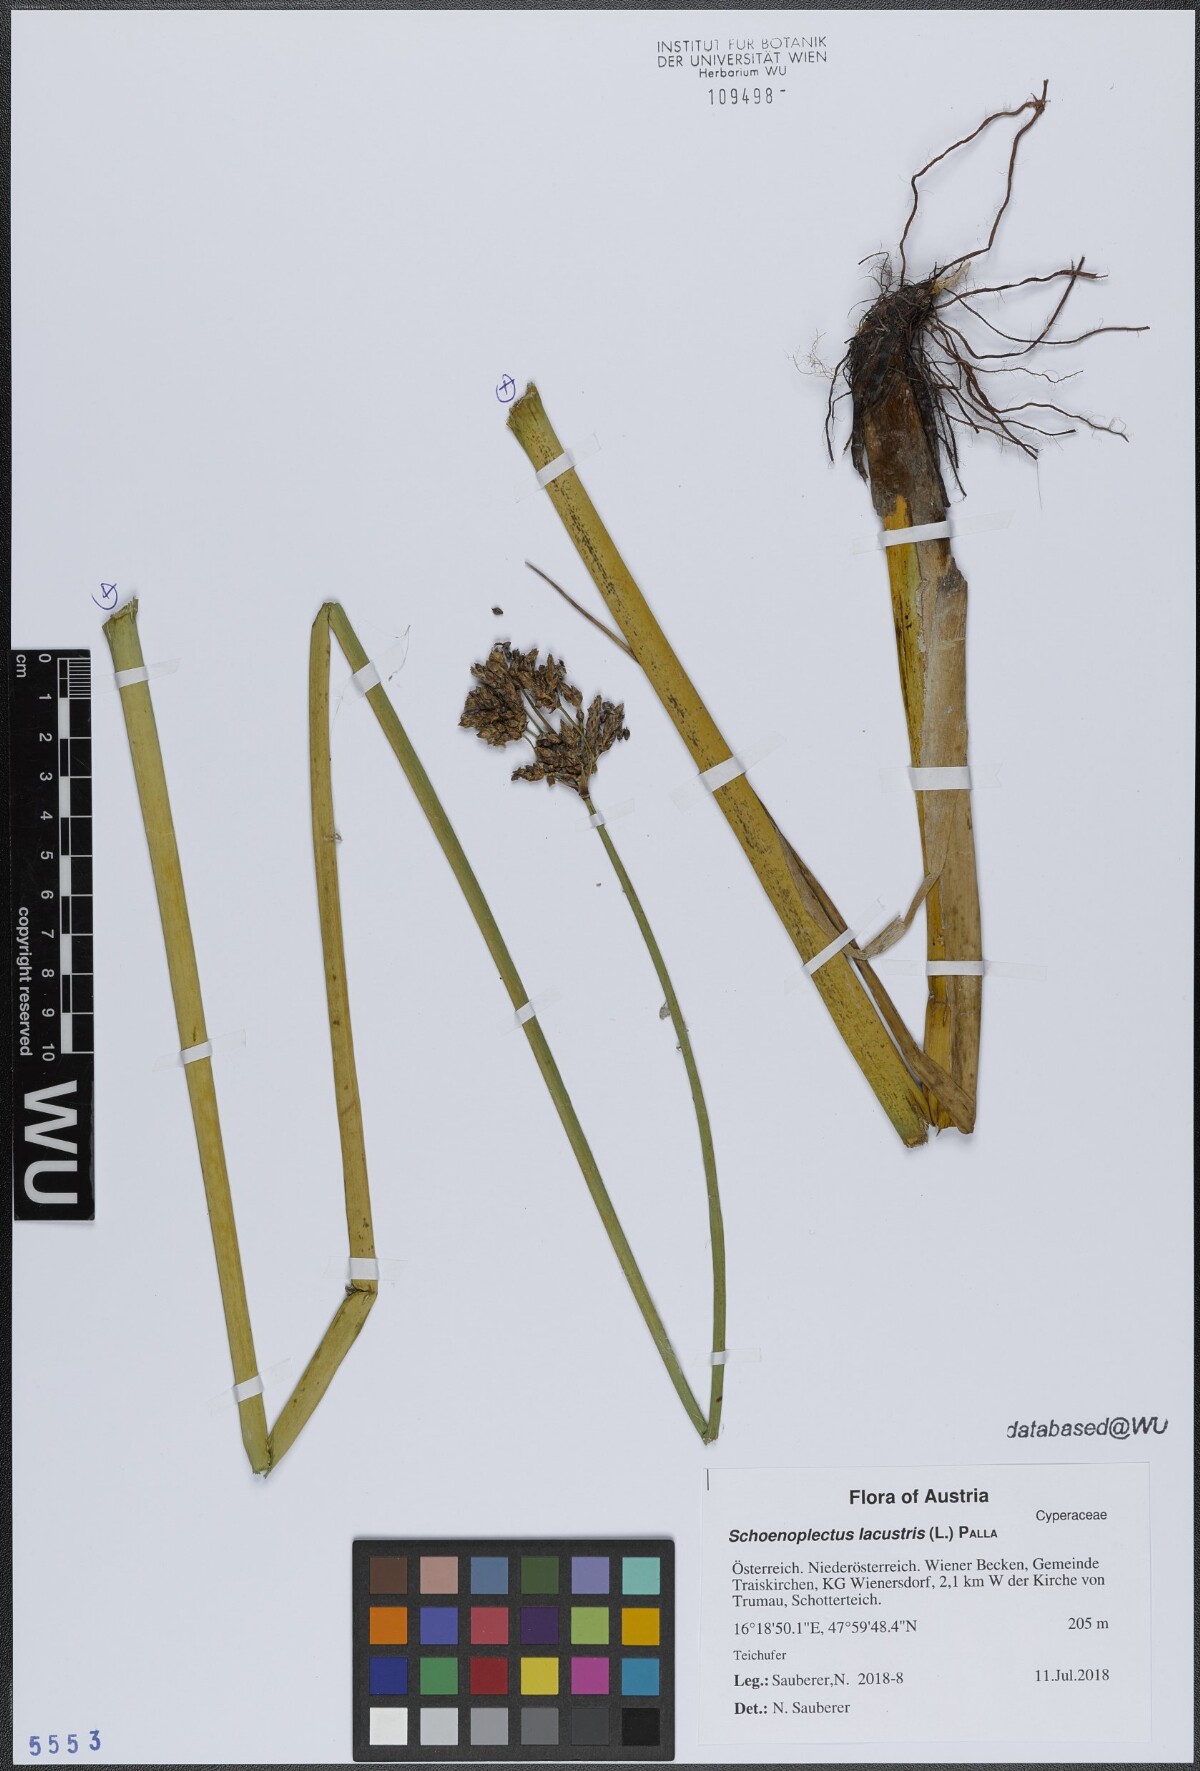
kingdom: Plantae
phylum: Tracheophyta
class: Liliopsida
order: Poales
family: Cyperaceae
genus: Schoenoplectus
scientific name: Schoenoplectus lacustris
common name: Common club-rush
